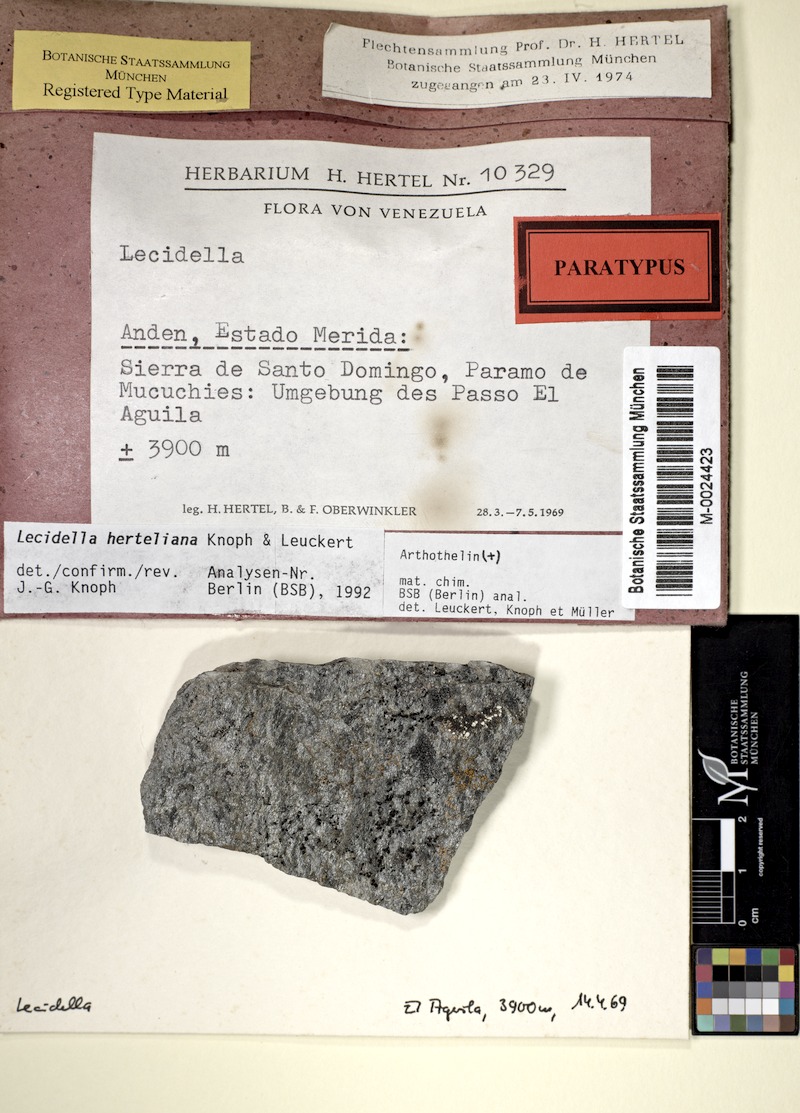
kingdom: Fungi
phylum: Ascomycota
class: Lecanoromycetes
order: Lecanorales
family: Lecanoraceae
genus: Lecidella
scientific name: Lecidella
